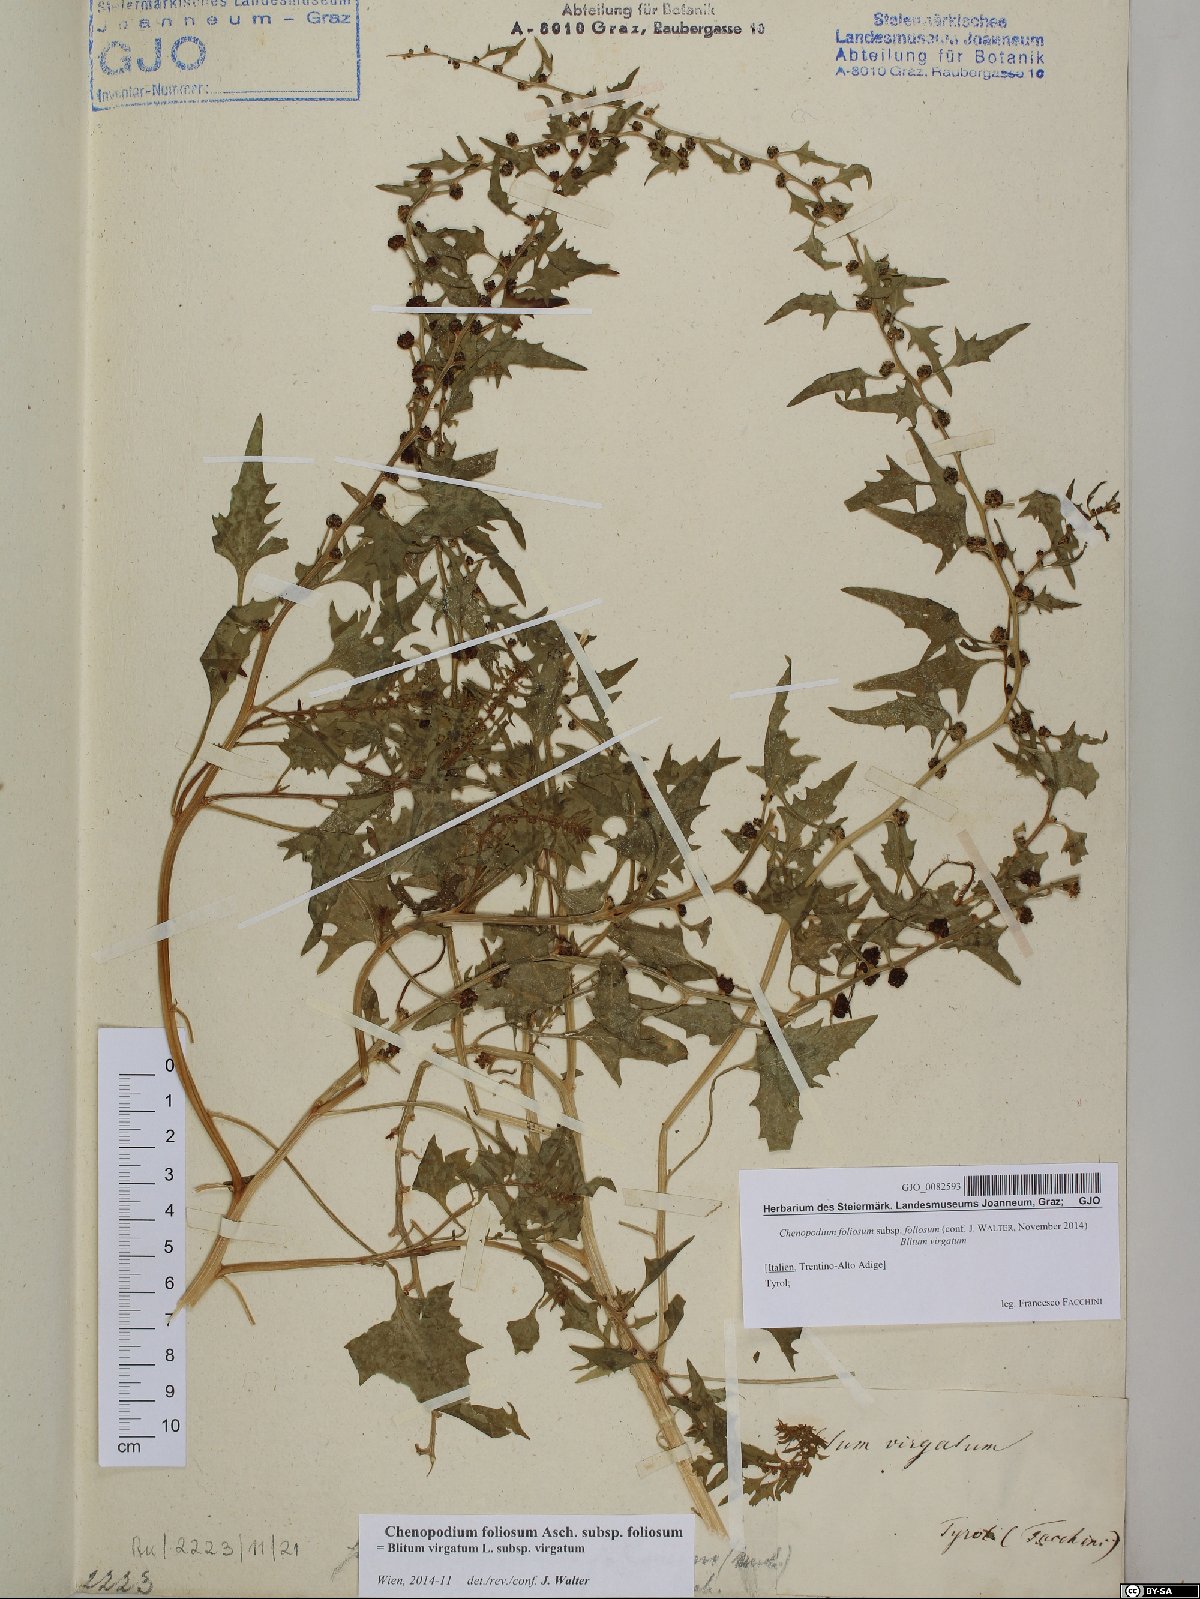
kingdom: Plantae
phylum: Tracheophyta
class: Magnoliopsida
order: Caryophyllales
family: Amaranthaceae
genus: Blitum
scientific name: Blitum virgatum
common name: Strawberry goosefoot
